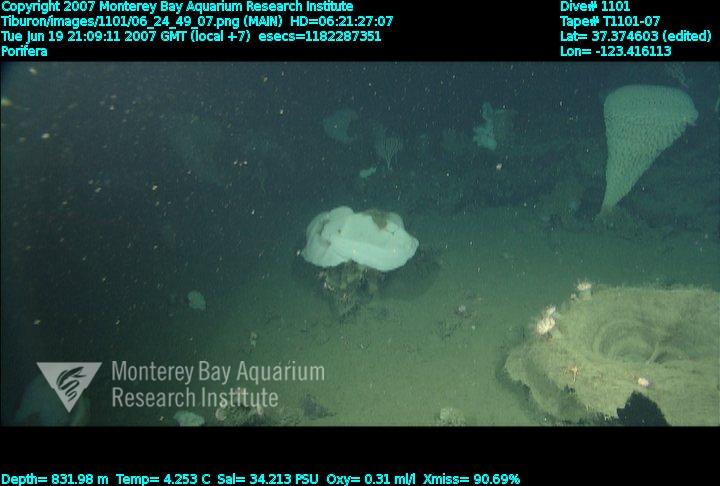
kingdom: Animalia
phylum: Porifera
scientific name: Porifera
